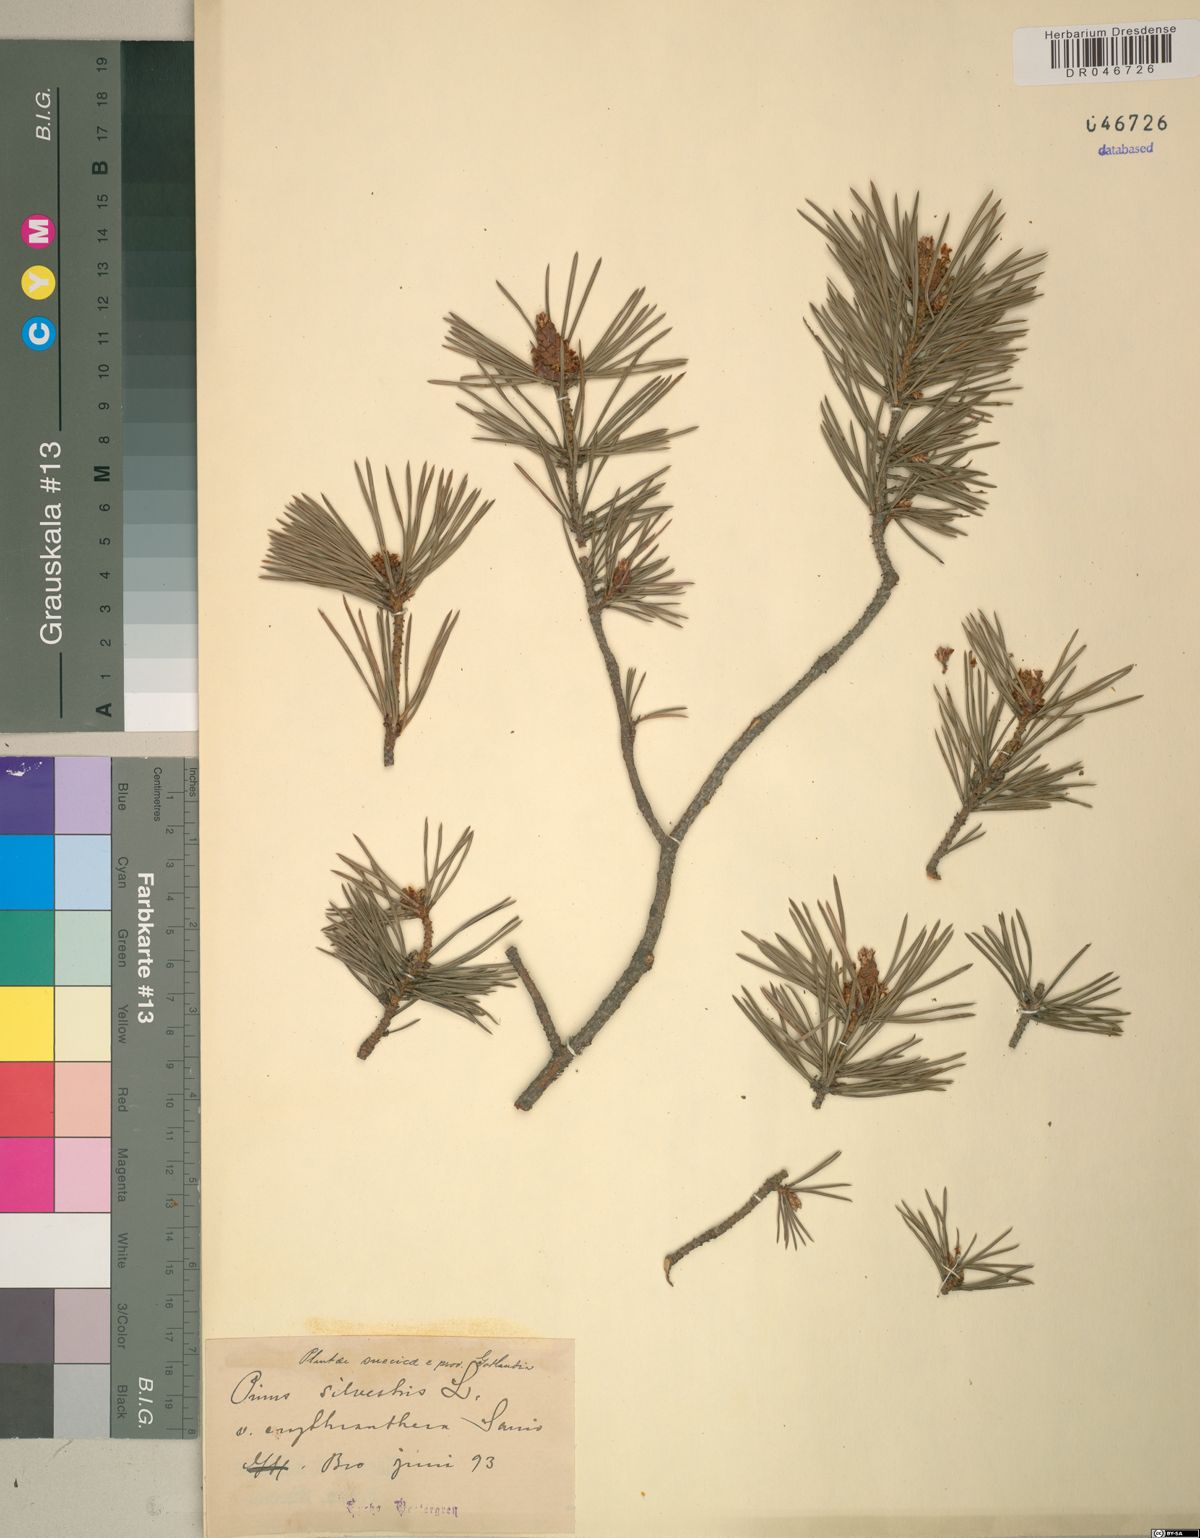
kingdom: Plantae
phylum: Tracheophyta
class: Pinopsida
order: Pinales
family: Pinaceae
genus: Pinus
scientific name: Pinus sylvestris
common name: Scots pine
